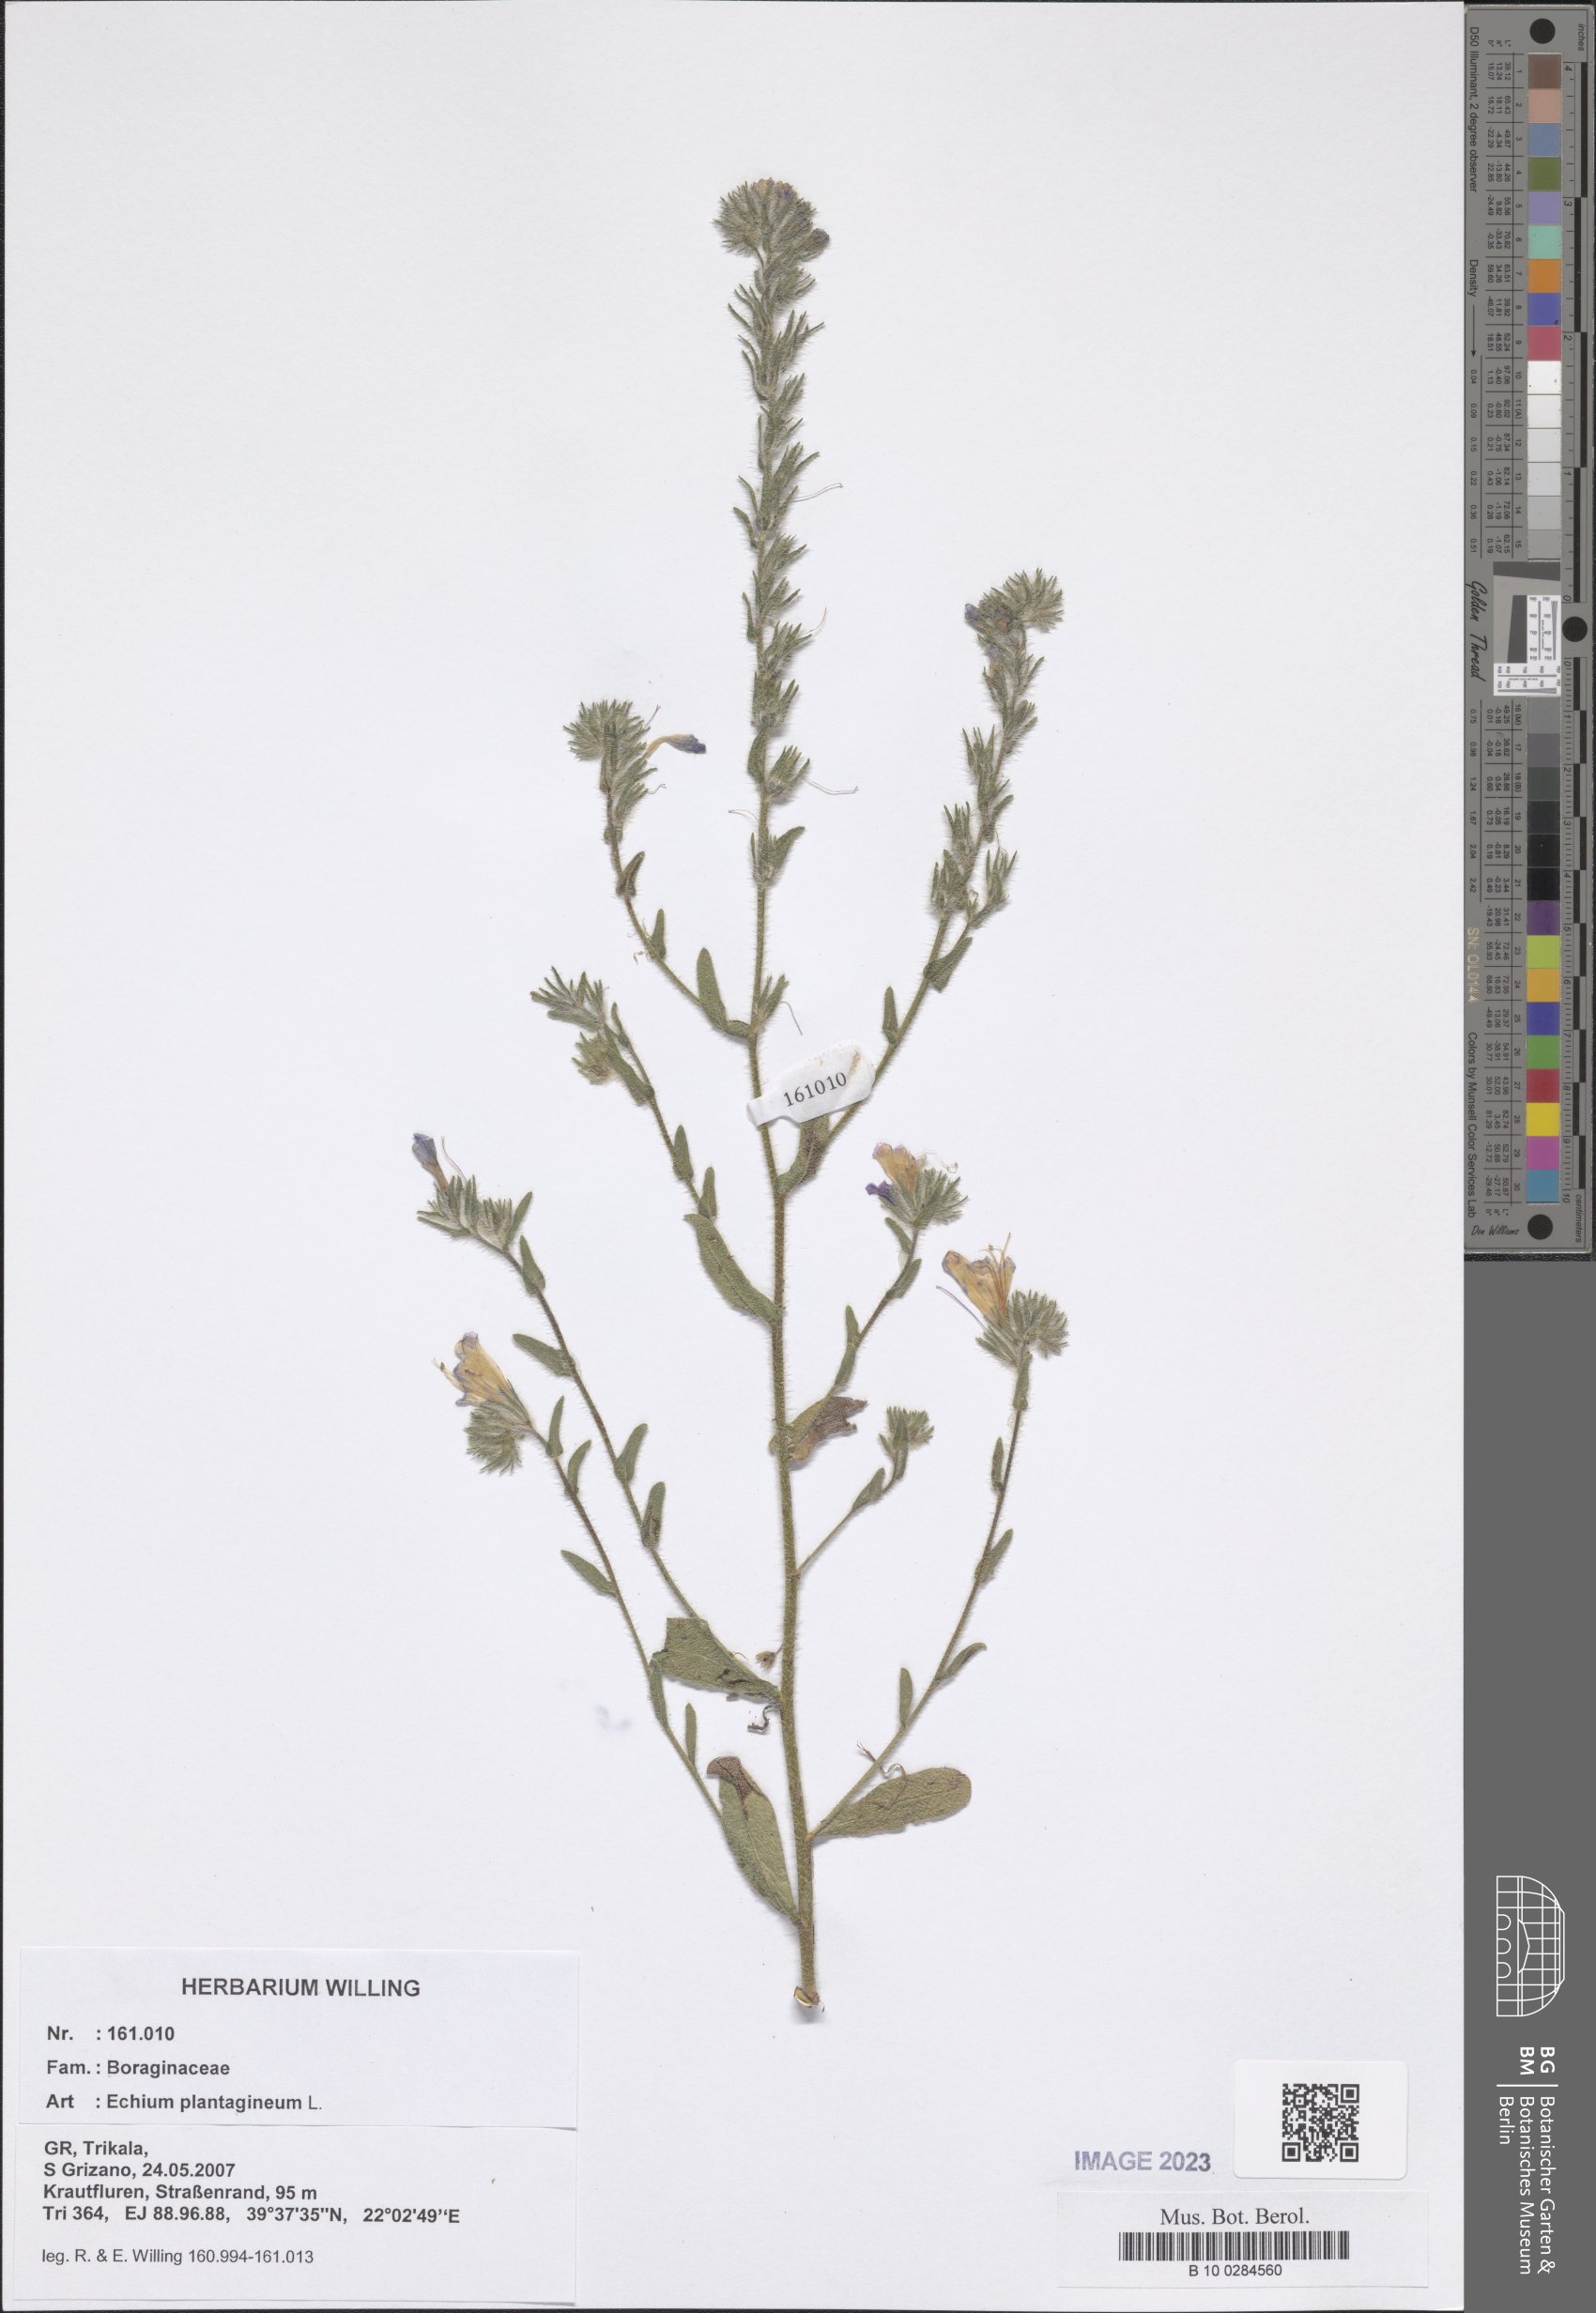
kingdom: Plantae
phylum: Tracheophyta
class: Magnoliopsida
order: Boraginales
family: Boraginaceae
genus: Echium
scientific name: Echium plantagineum
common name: Purple viper's-bugloss
